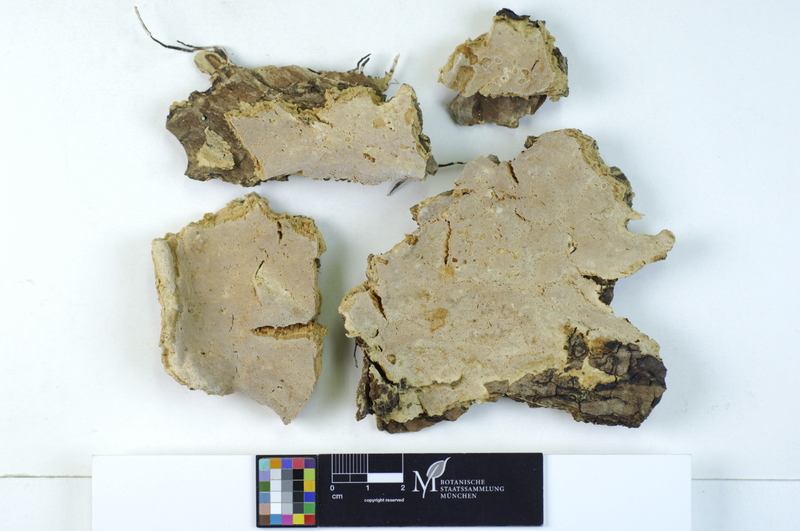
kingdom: Fungi
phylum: Basidiomycota
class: Agaricomycetes
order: Hymenochaetales
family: Oxyporaceae
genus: Oxyporus
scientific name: Oxyporus obducens
